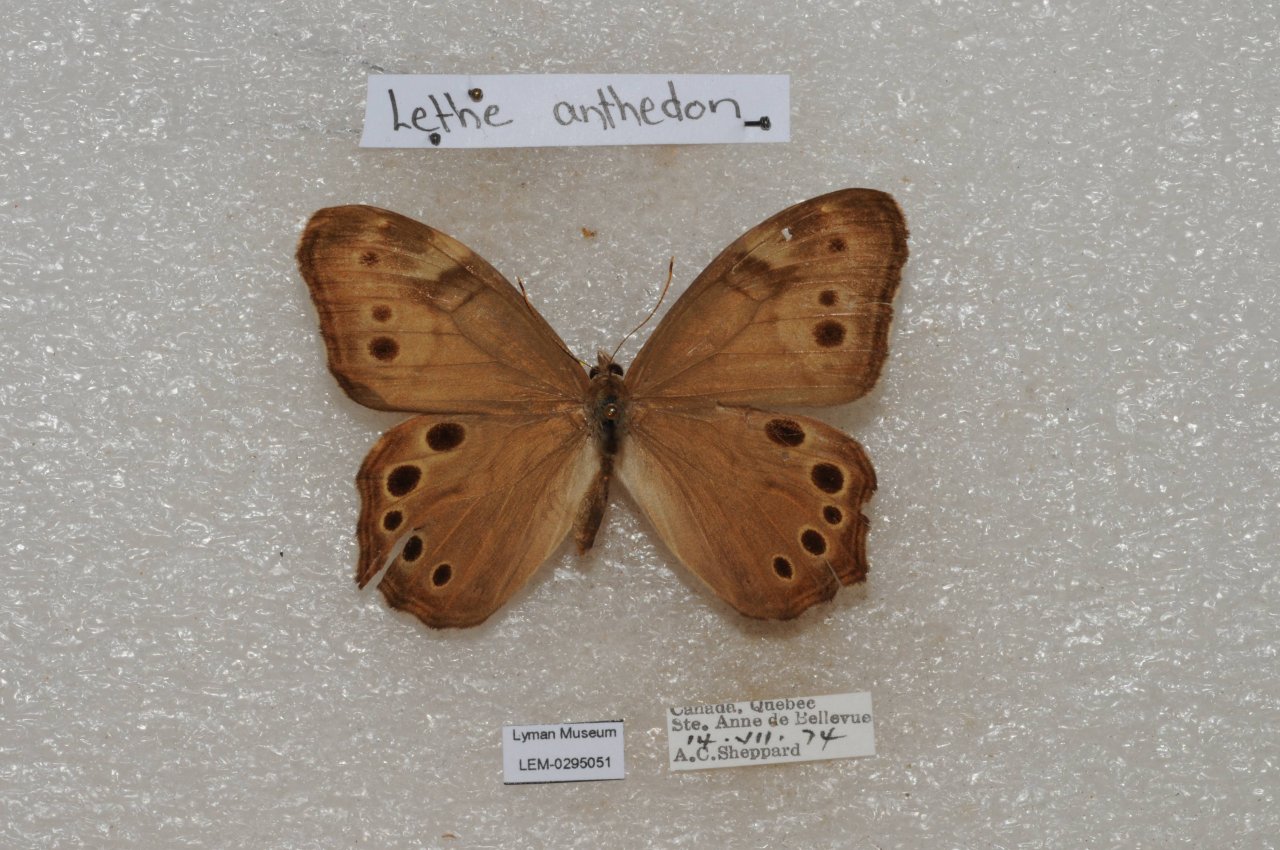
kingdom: Animalia
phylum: Arthropoda
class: Insecta
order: Lepidoptera
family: Nymphalidae
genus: Lethe
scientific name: Lethe anthedon
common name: Northern Pearly-Eye
